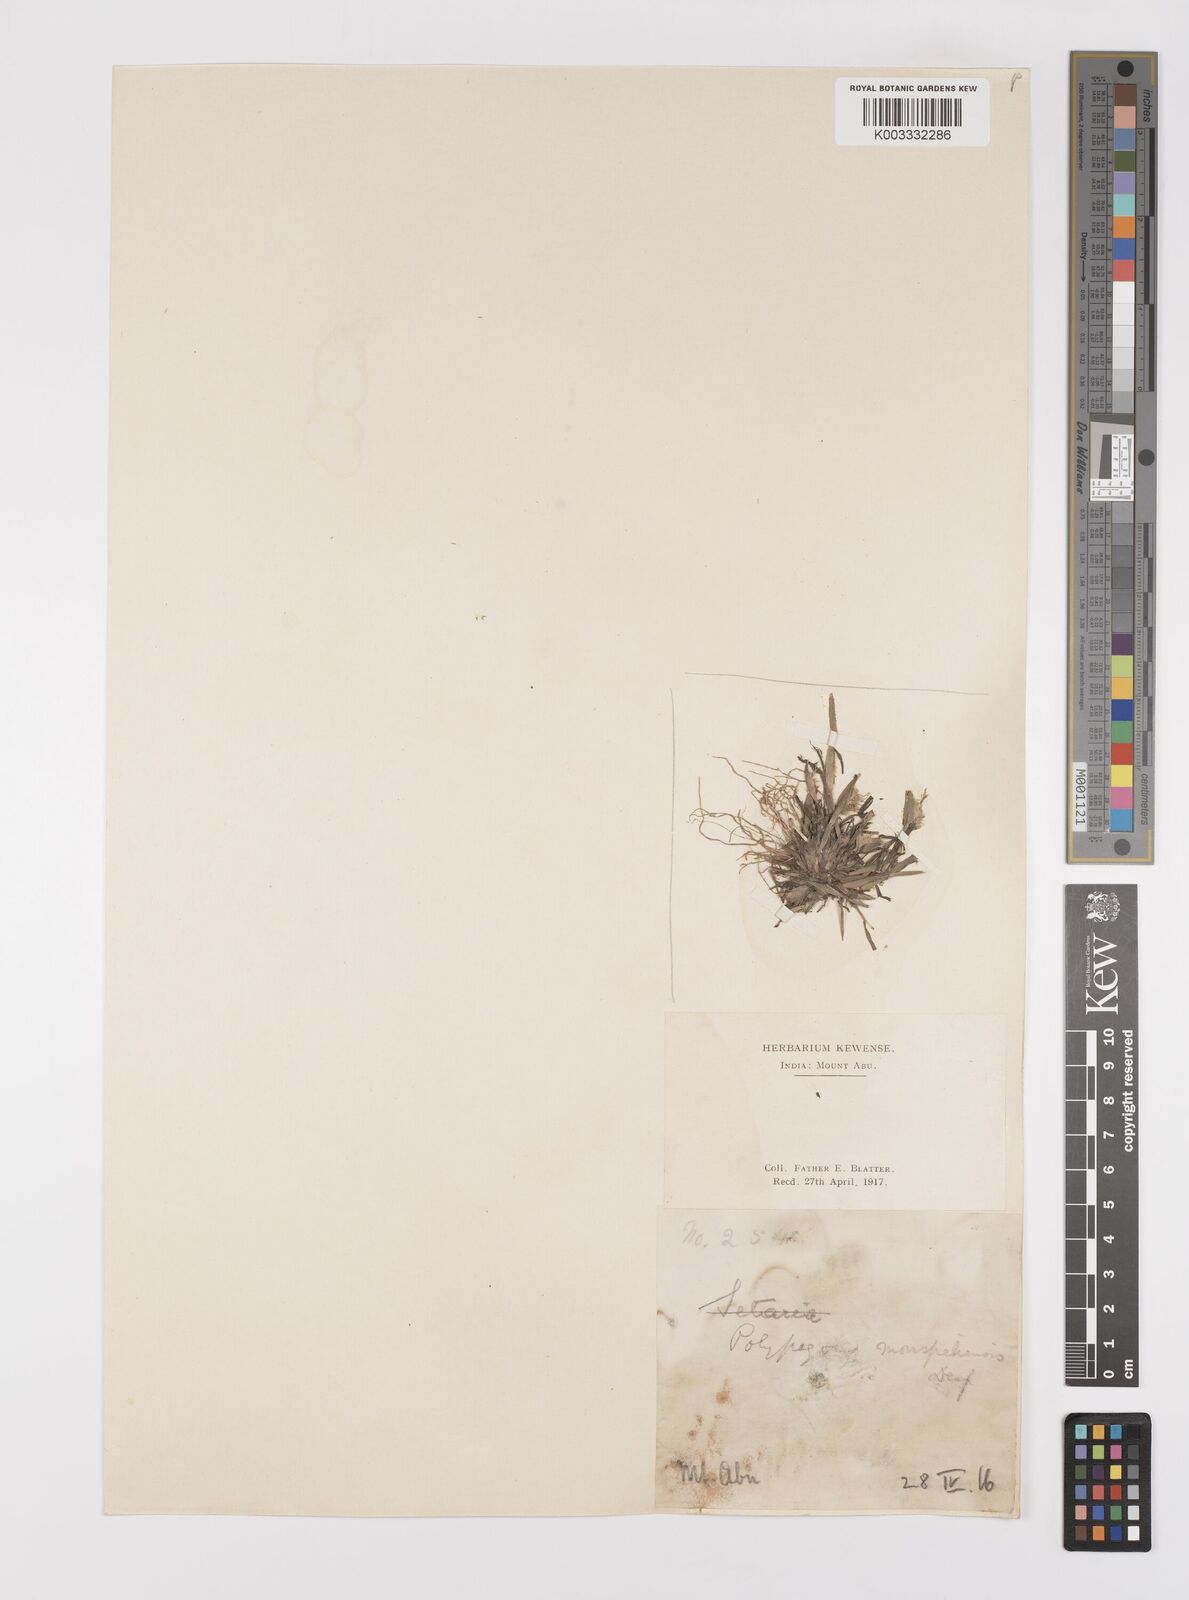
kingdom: Plantae
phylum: Tracheophyta
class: Liliopsida
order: Poales
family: Poaceae
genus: Polypogon
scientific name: Polypogon monspeliensis
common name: Annual rabbitsfoot grass
